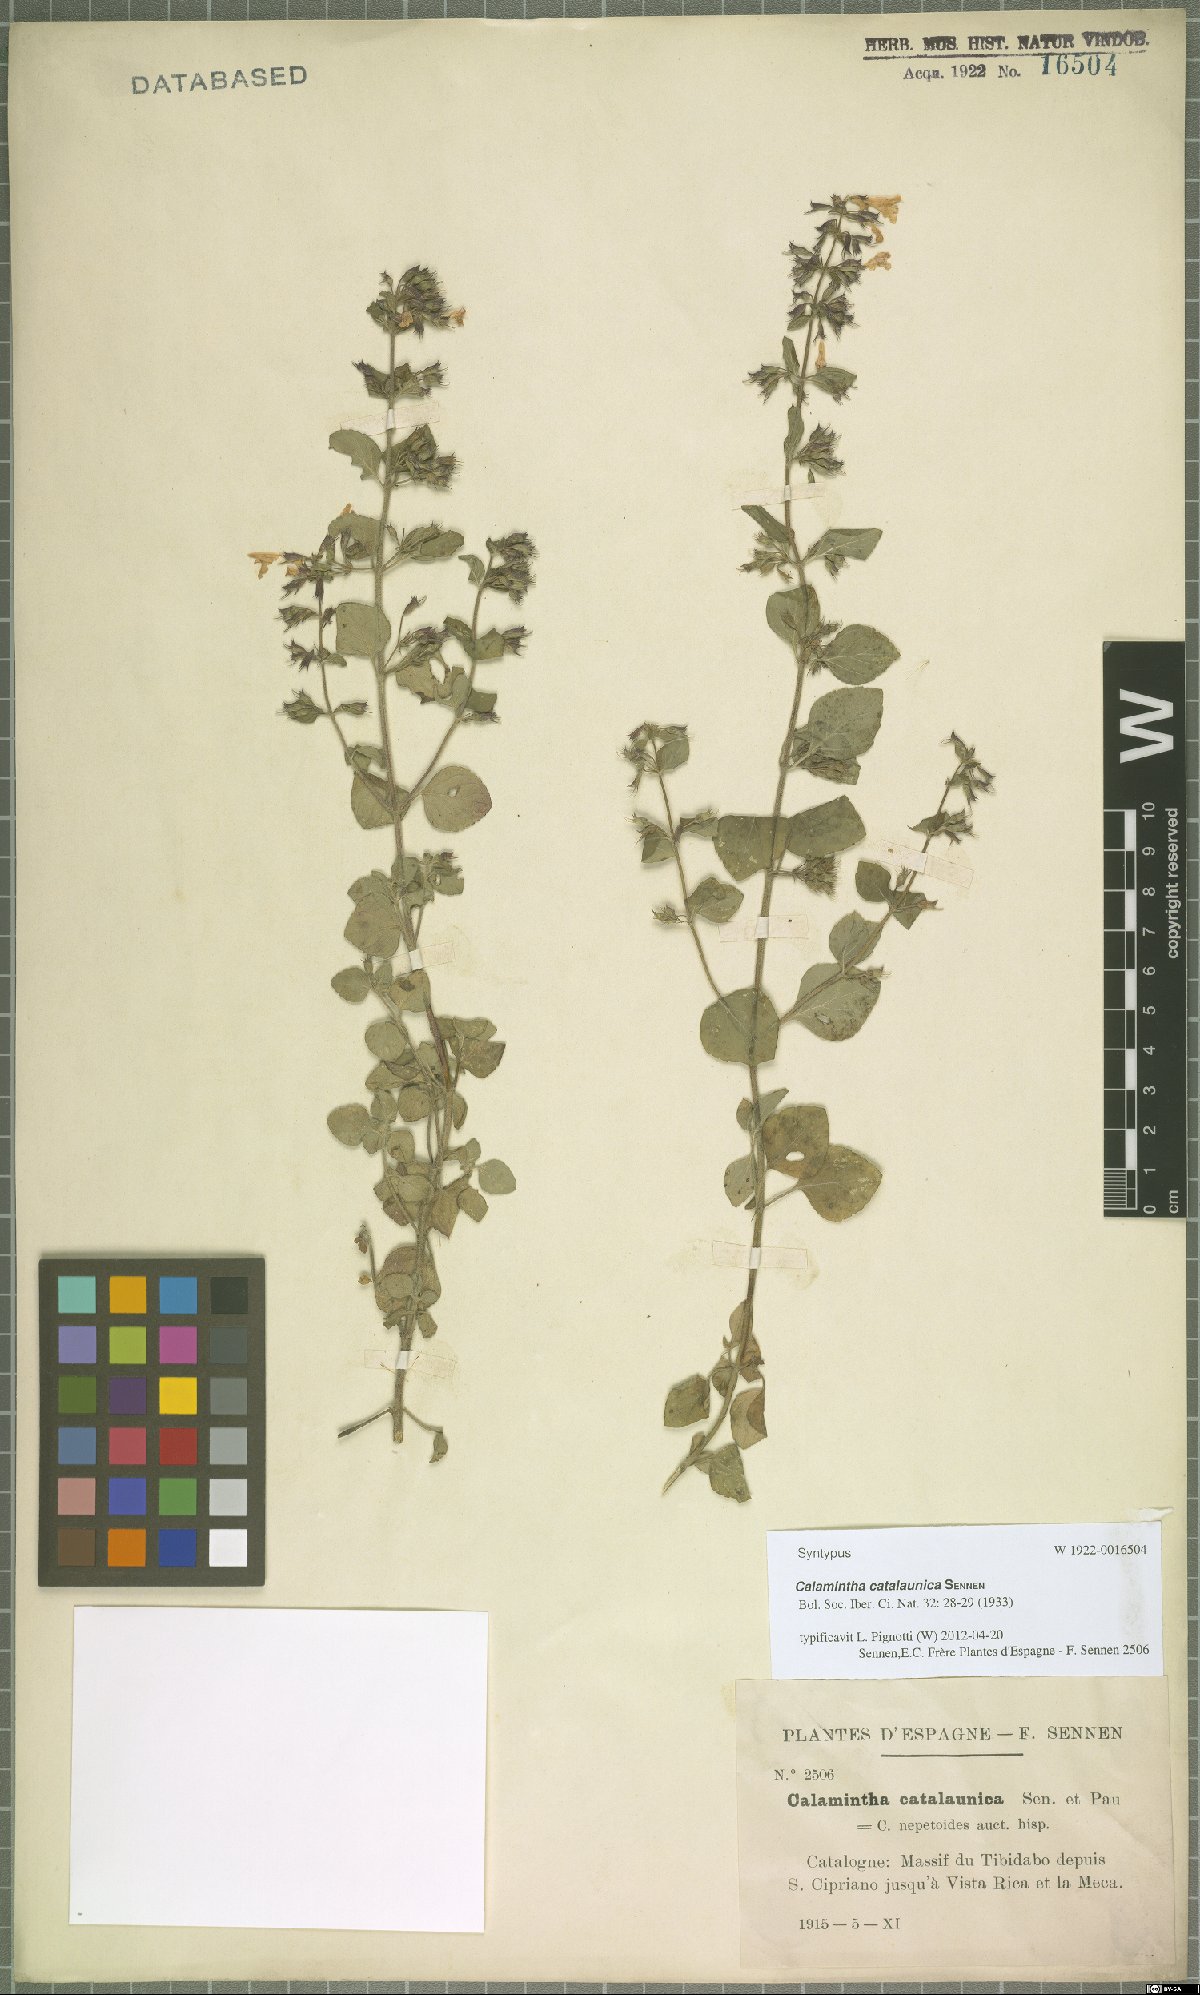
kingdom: Plantae
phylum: Tracheophyta
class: Magnoliopsida
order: Lamiales
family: Lamiaceae
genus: Clinopodium
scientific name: Clinopodium Calamintha catalaunica
